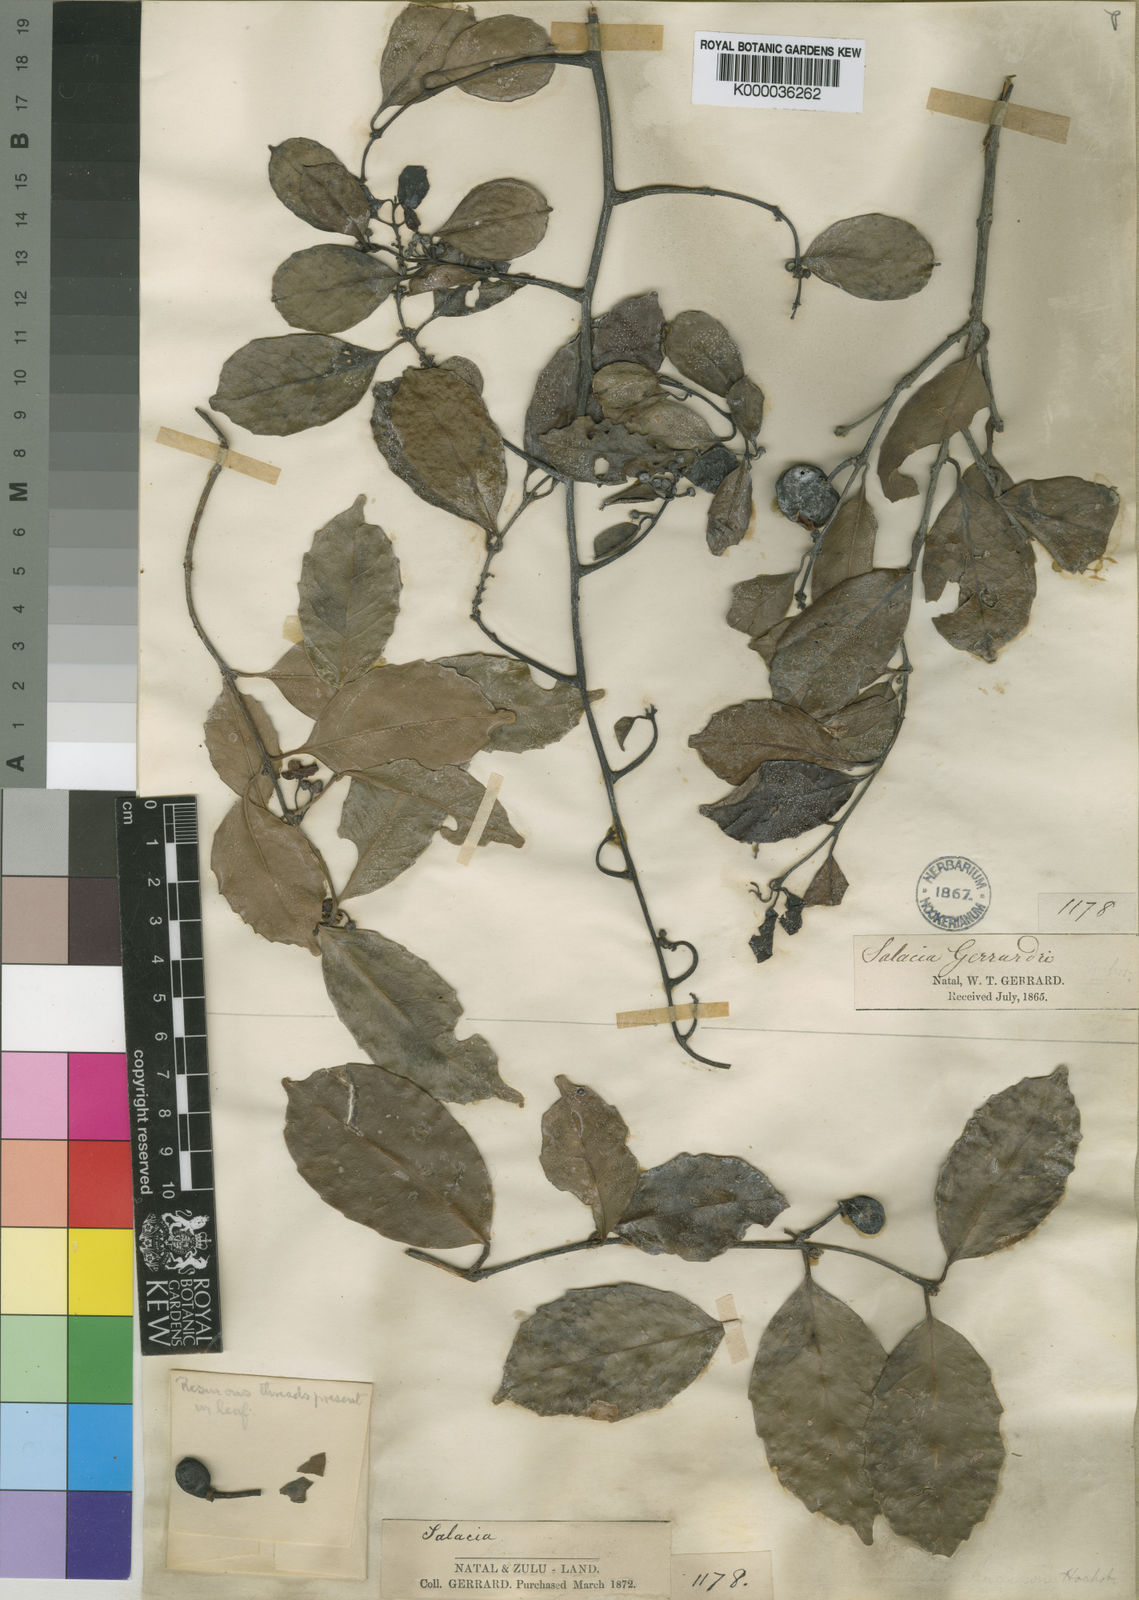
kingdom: Plantae
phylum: Tracheophyta
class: Magnoliopsida
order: Celastrales
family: Celastraceae
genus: Salacia
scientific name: Salacia gerrardii
